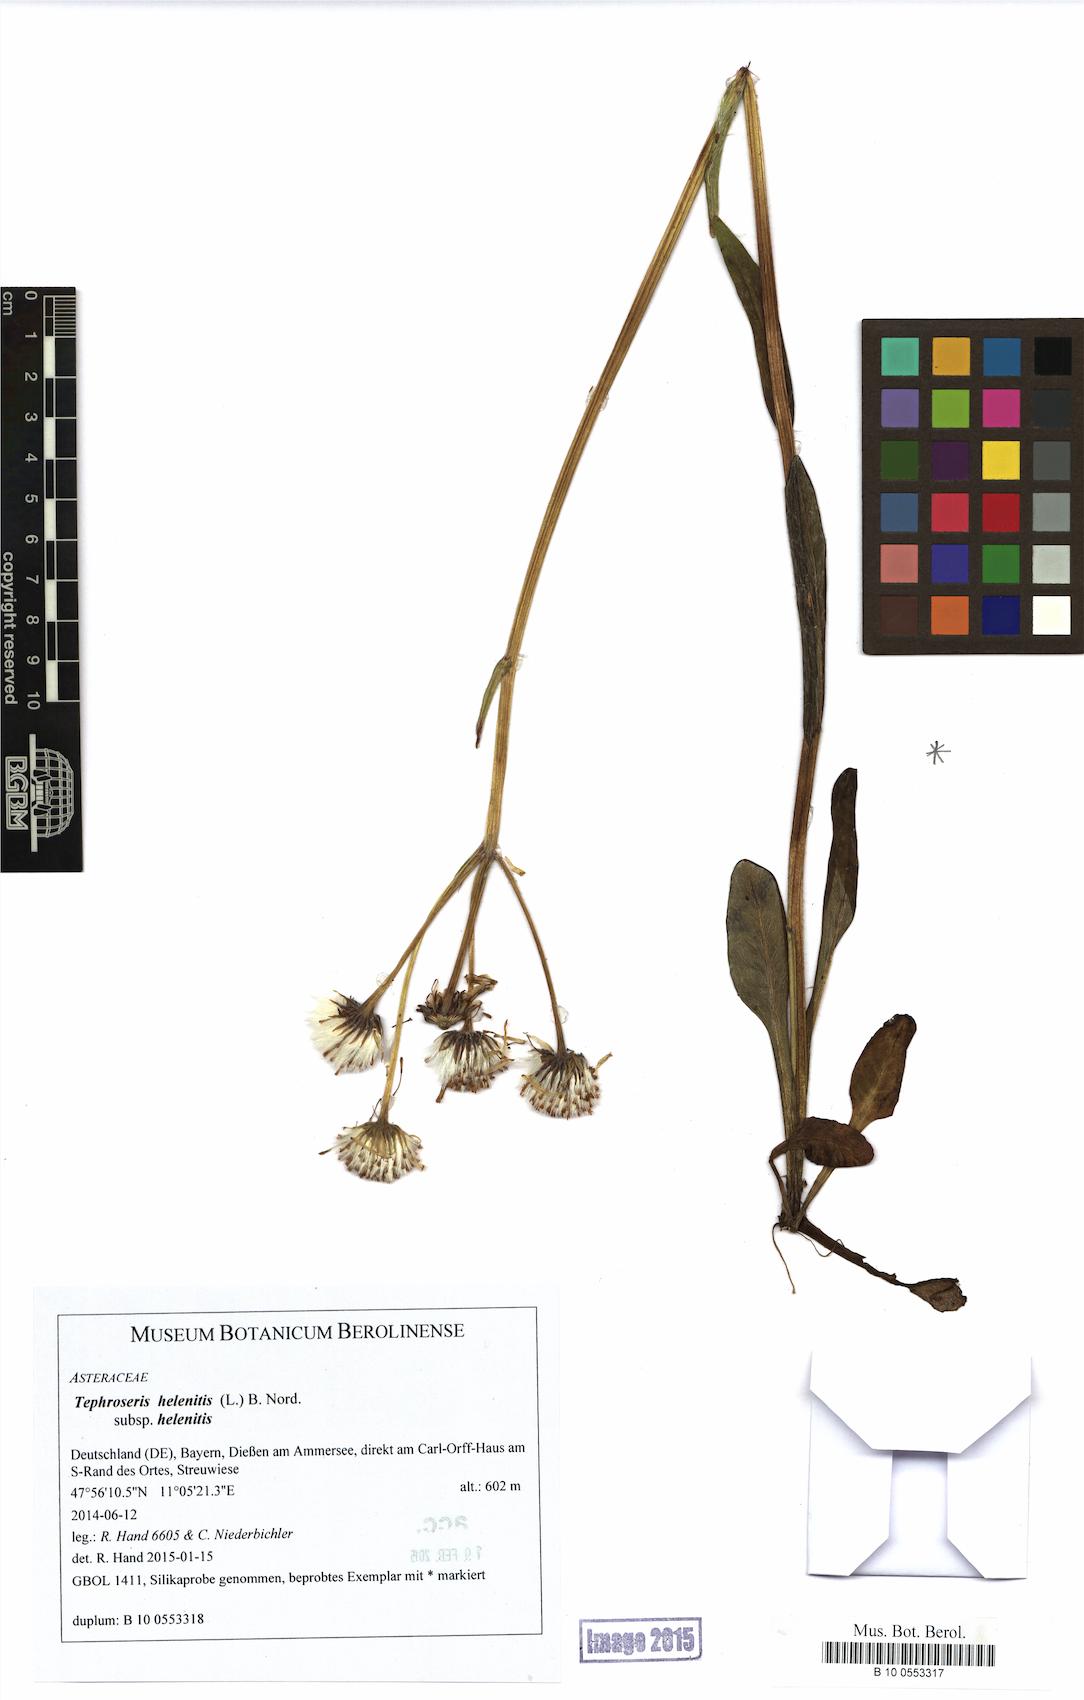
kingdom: Plantae
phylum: Tracheophyta
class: Magnoliopsida
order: Asterales
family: Asteraceae
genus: Tephroseris
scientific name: Tephroseris helenitis
